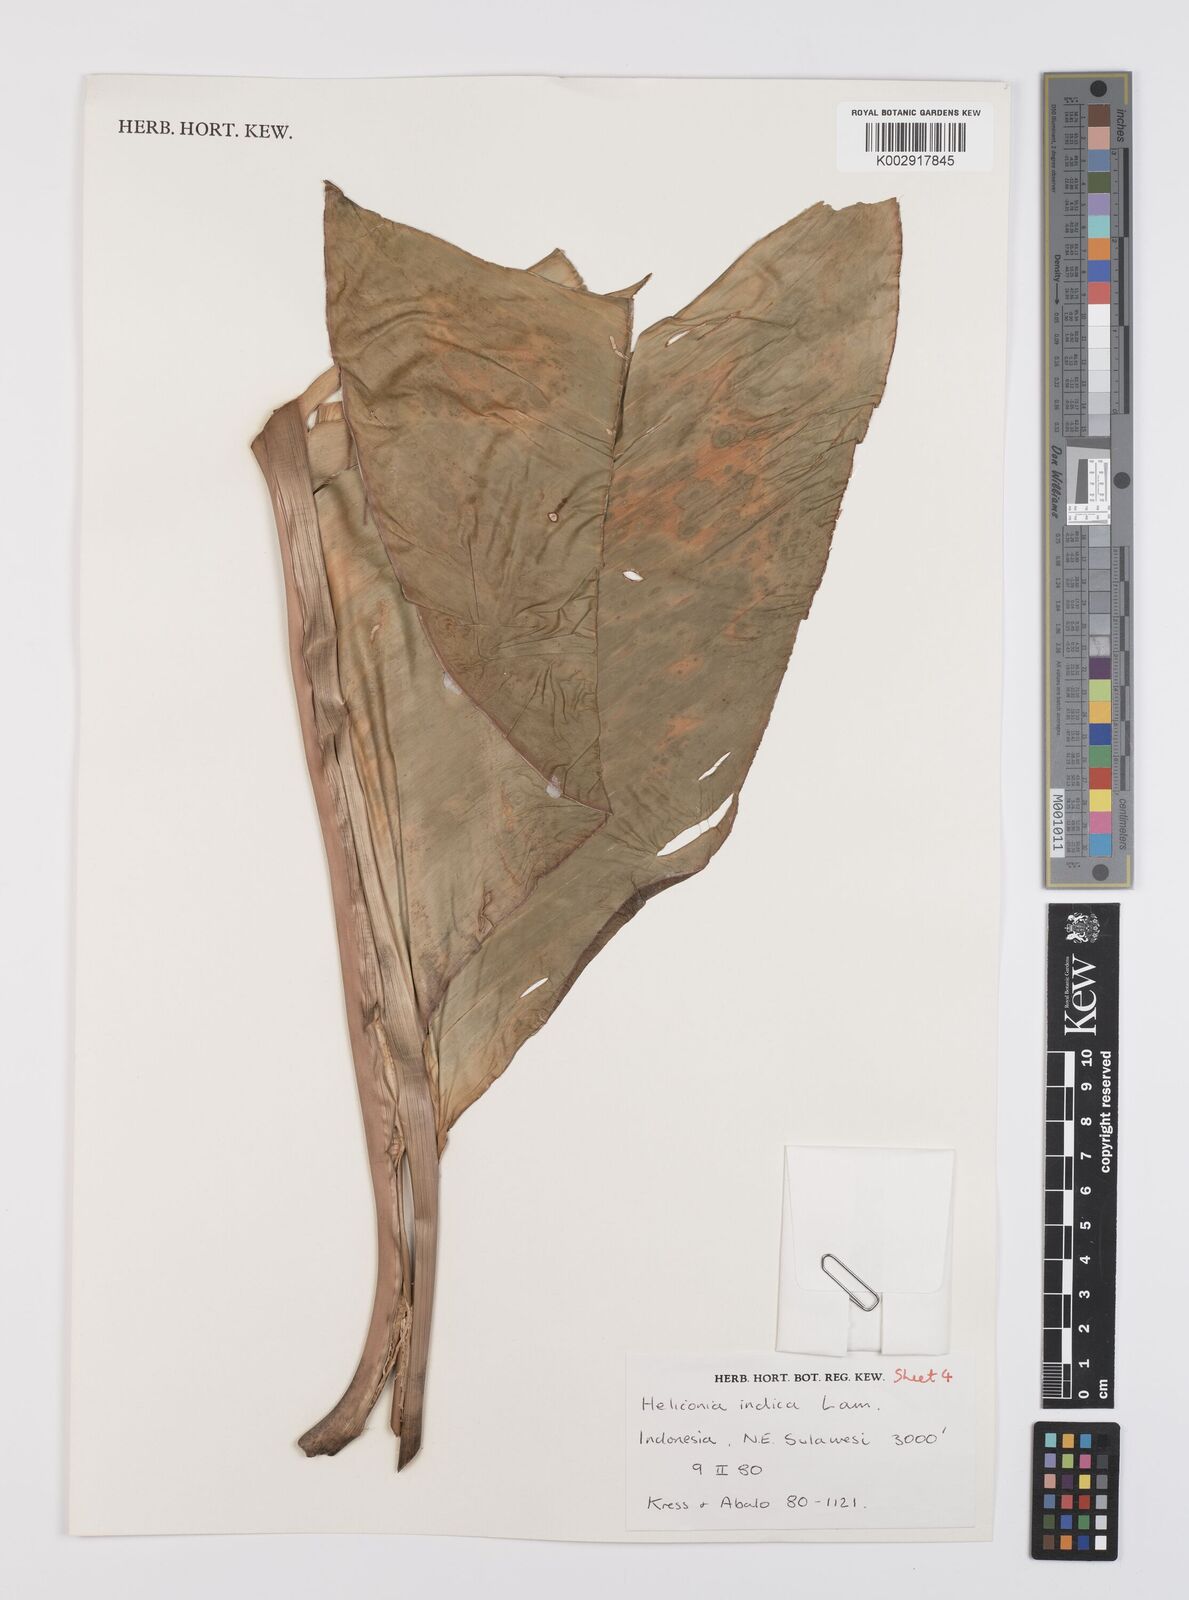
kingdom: Plantae
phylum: Tracheophyta
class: Liliopsida
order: Zingiberales
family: Heliconiaceae
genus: Heliconia
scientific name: Heliconia indica
